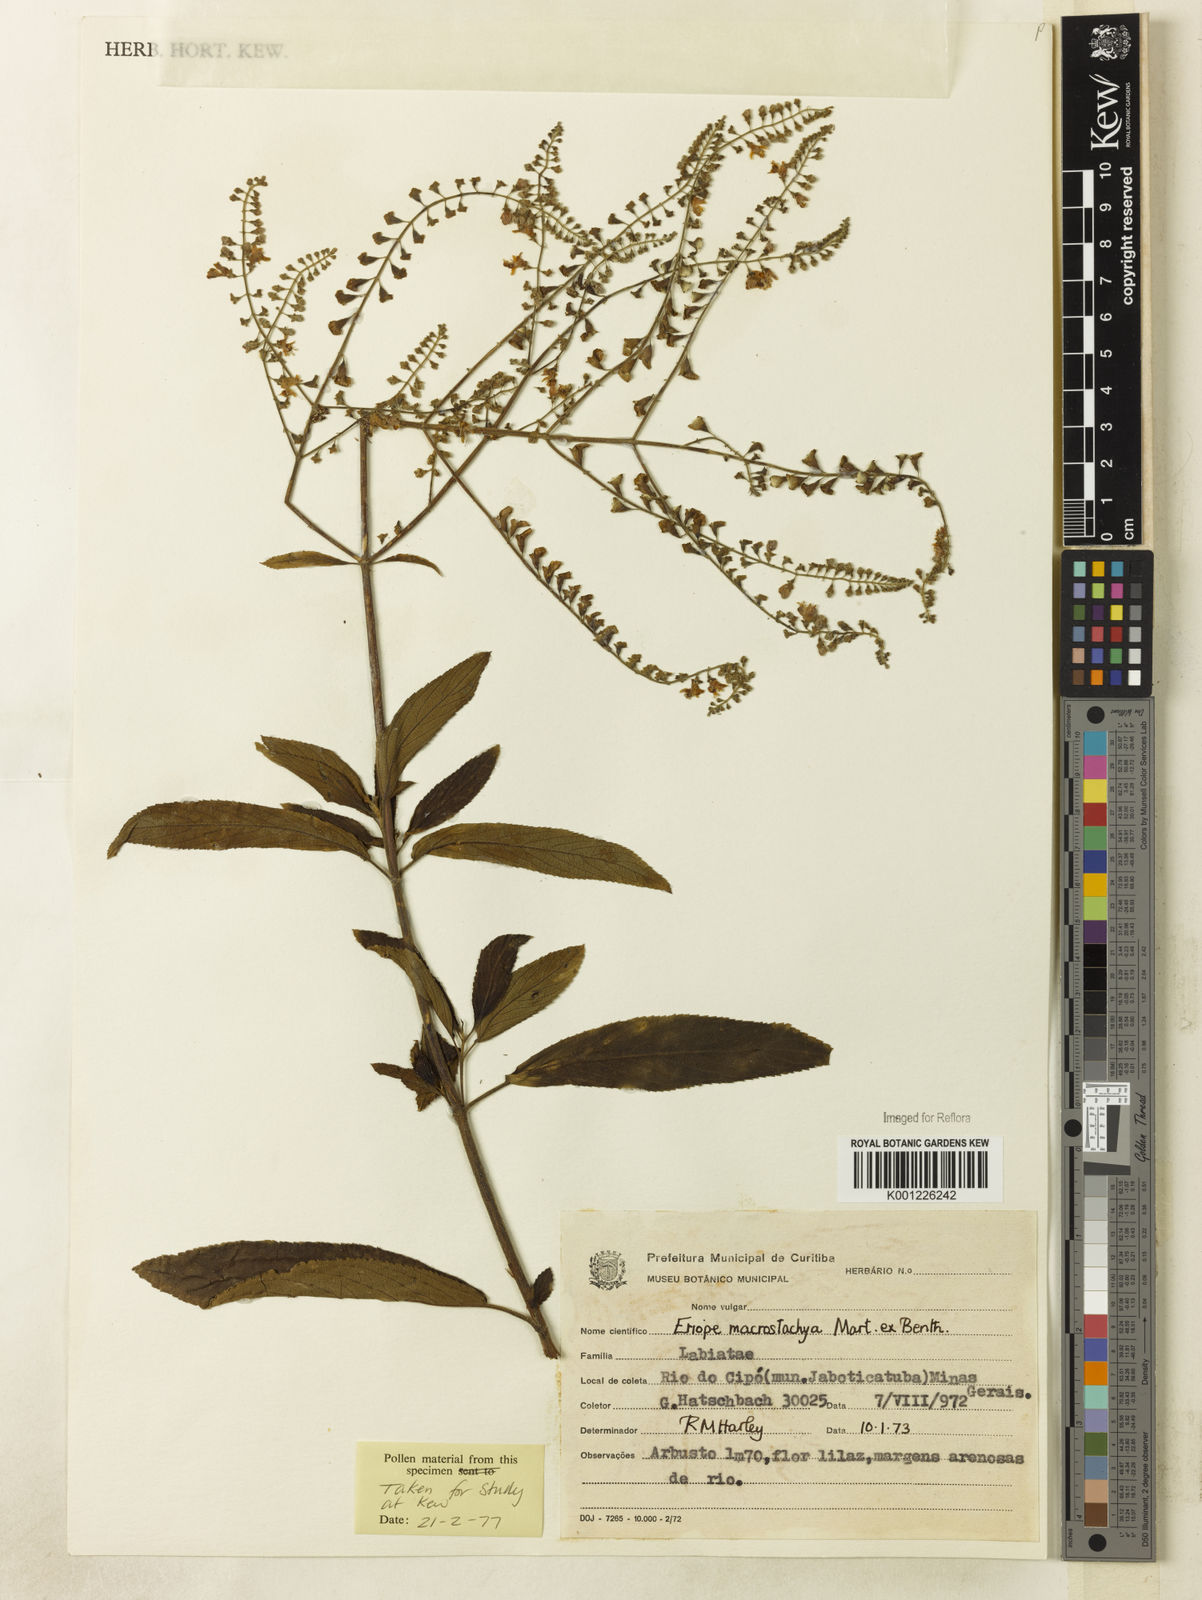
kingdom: Plantae
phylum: Tracheophyta
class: Magnoliopsida
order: Lamiales
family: Lamiaceae
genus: Eriope
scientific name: Eriope macrostachya
